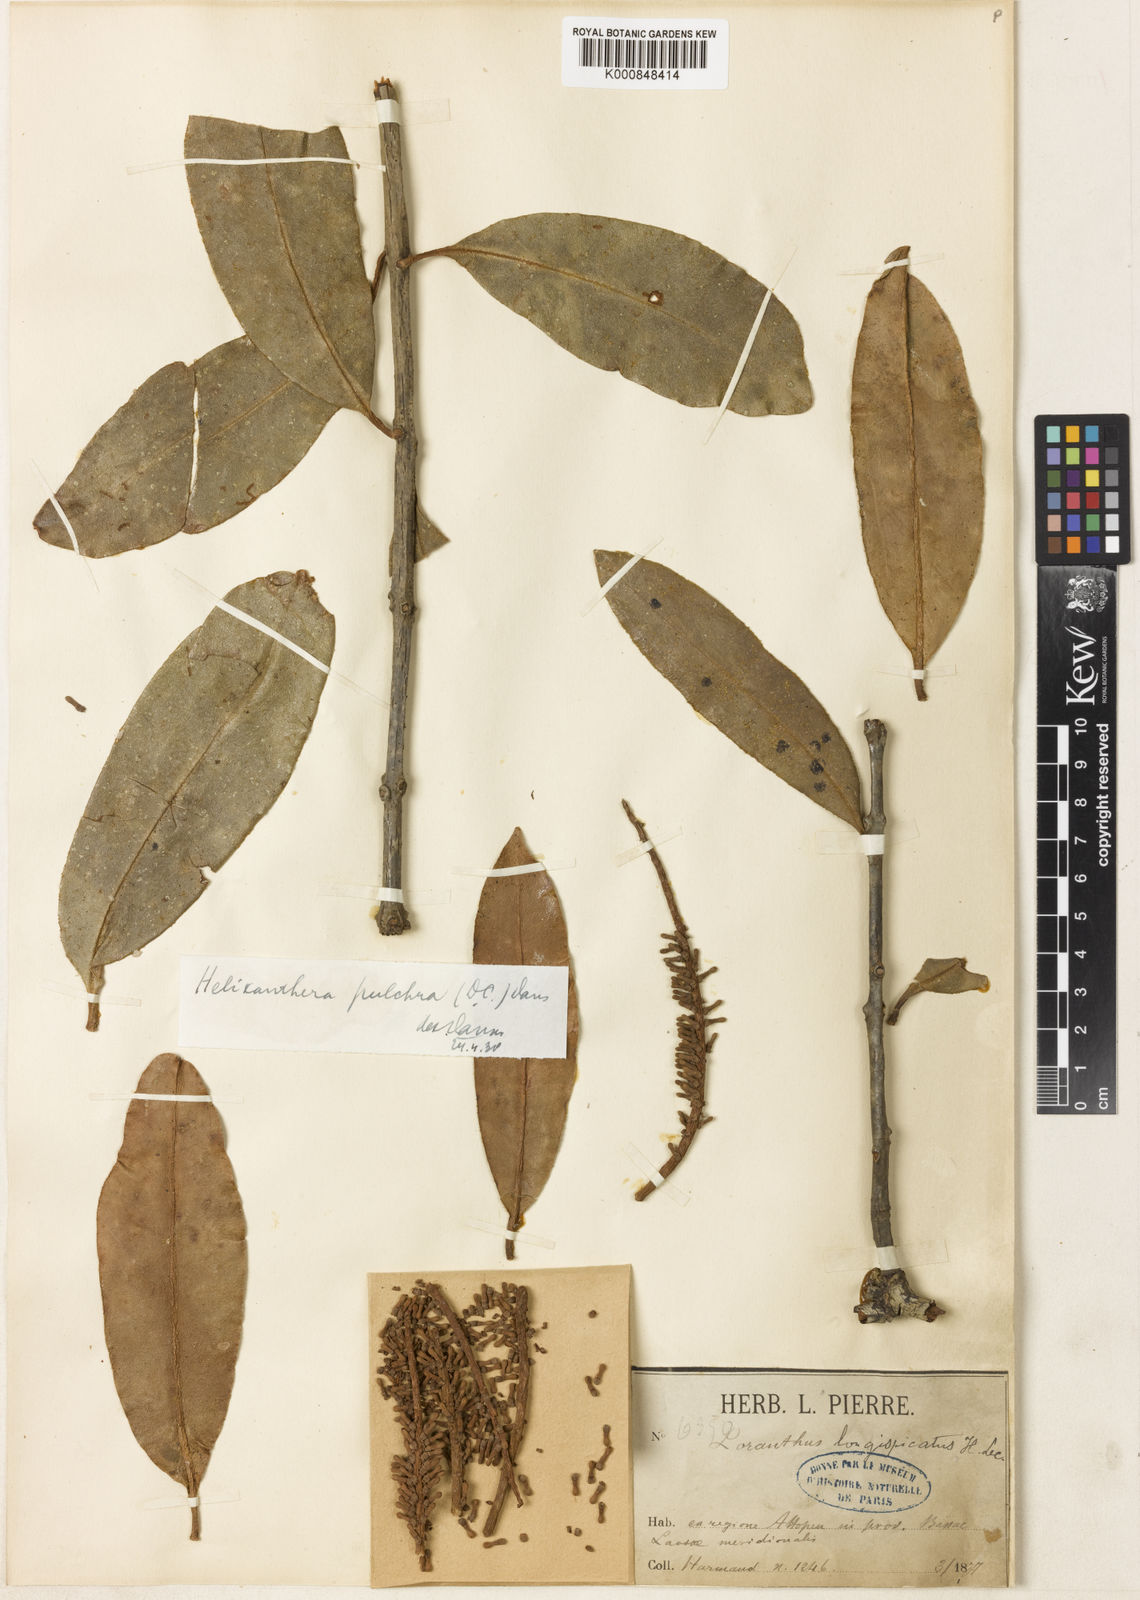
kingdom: Plantae
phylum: Tracheophyta
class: Magnoliopsida
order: Santalales
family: Loranthaceae
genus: Helixanthera
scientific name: Helixanthera pulchra
